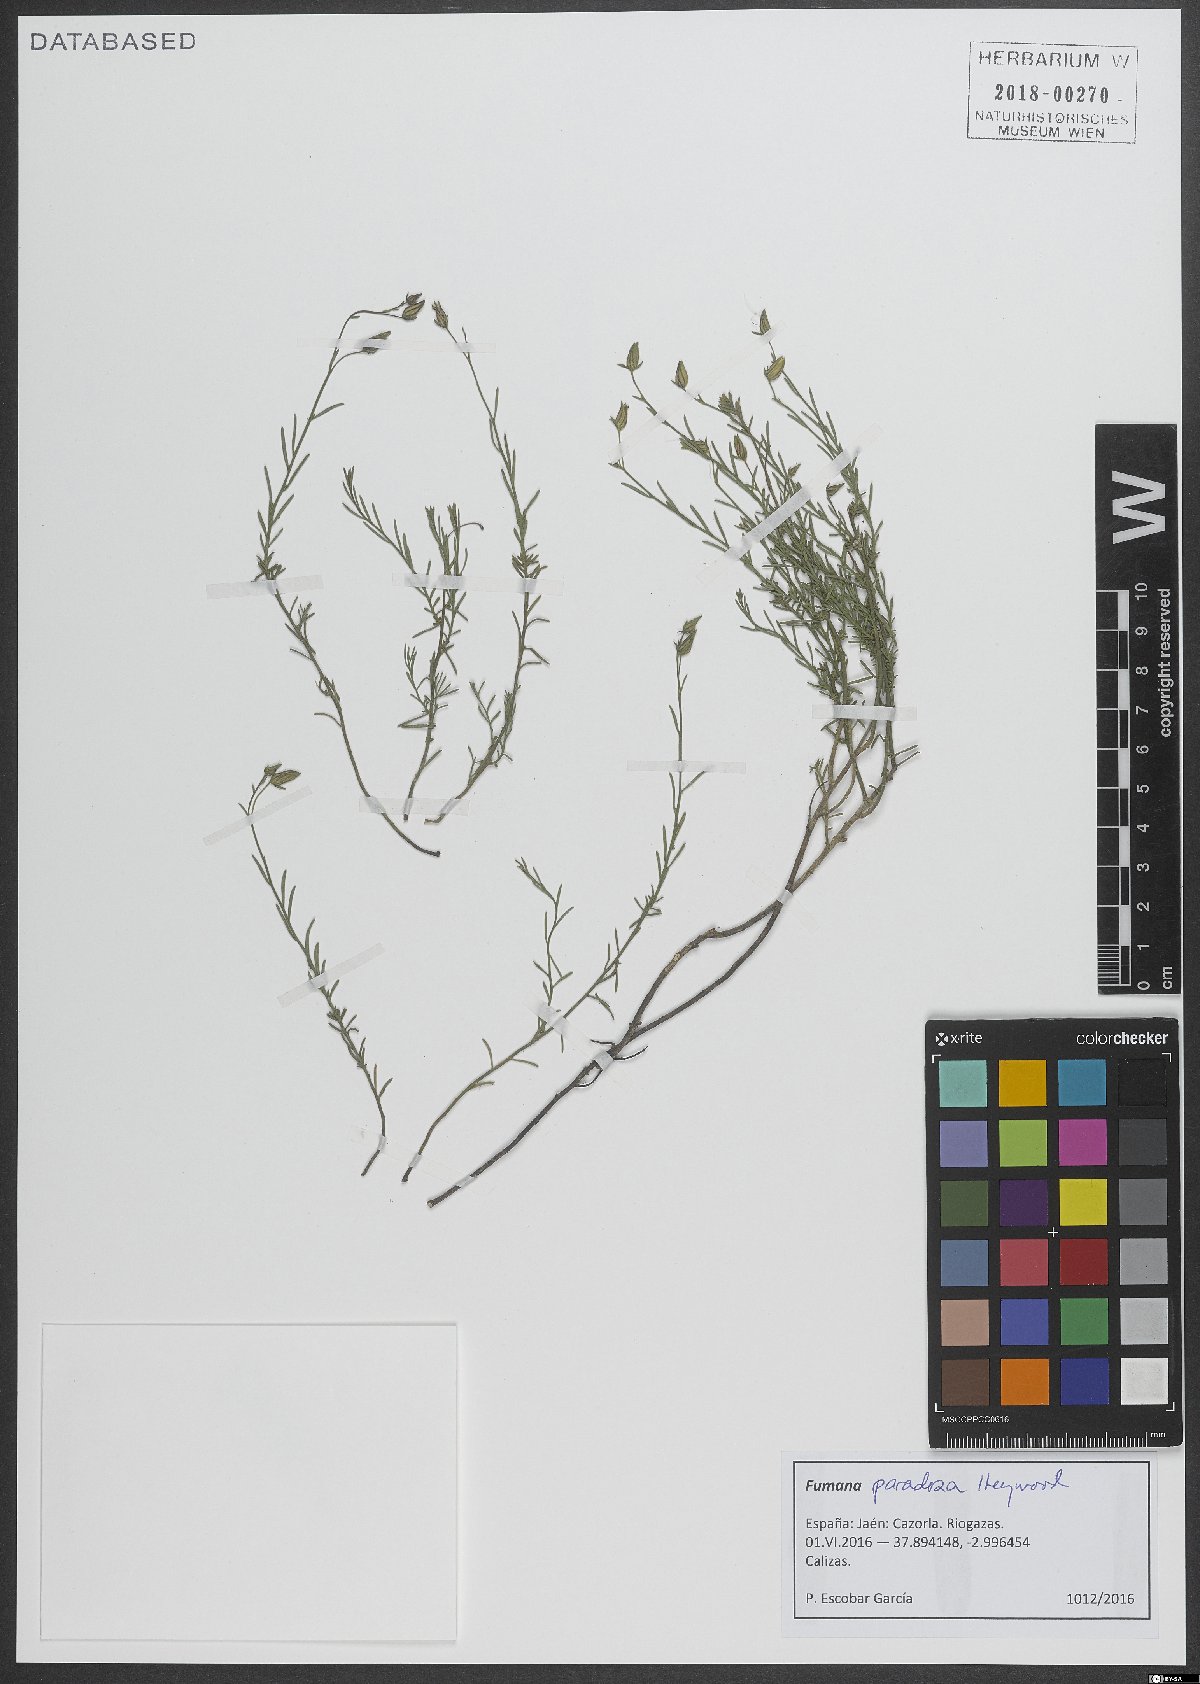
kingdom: Plantae
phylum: Tracheophyta
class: Magnoliopsida
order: Malvales
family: Cistaceae
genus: Fumana
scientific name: Fumana paradoxa
